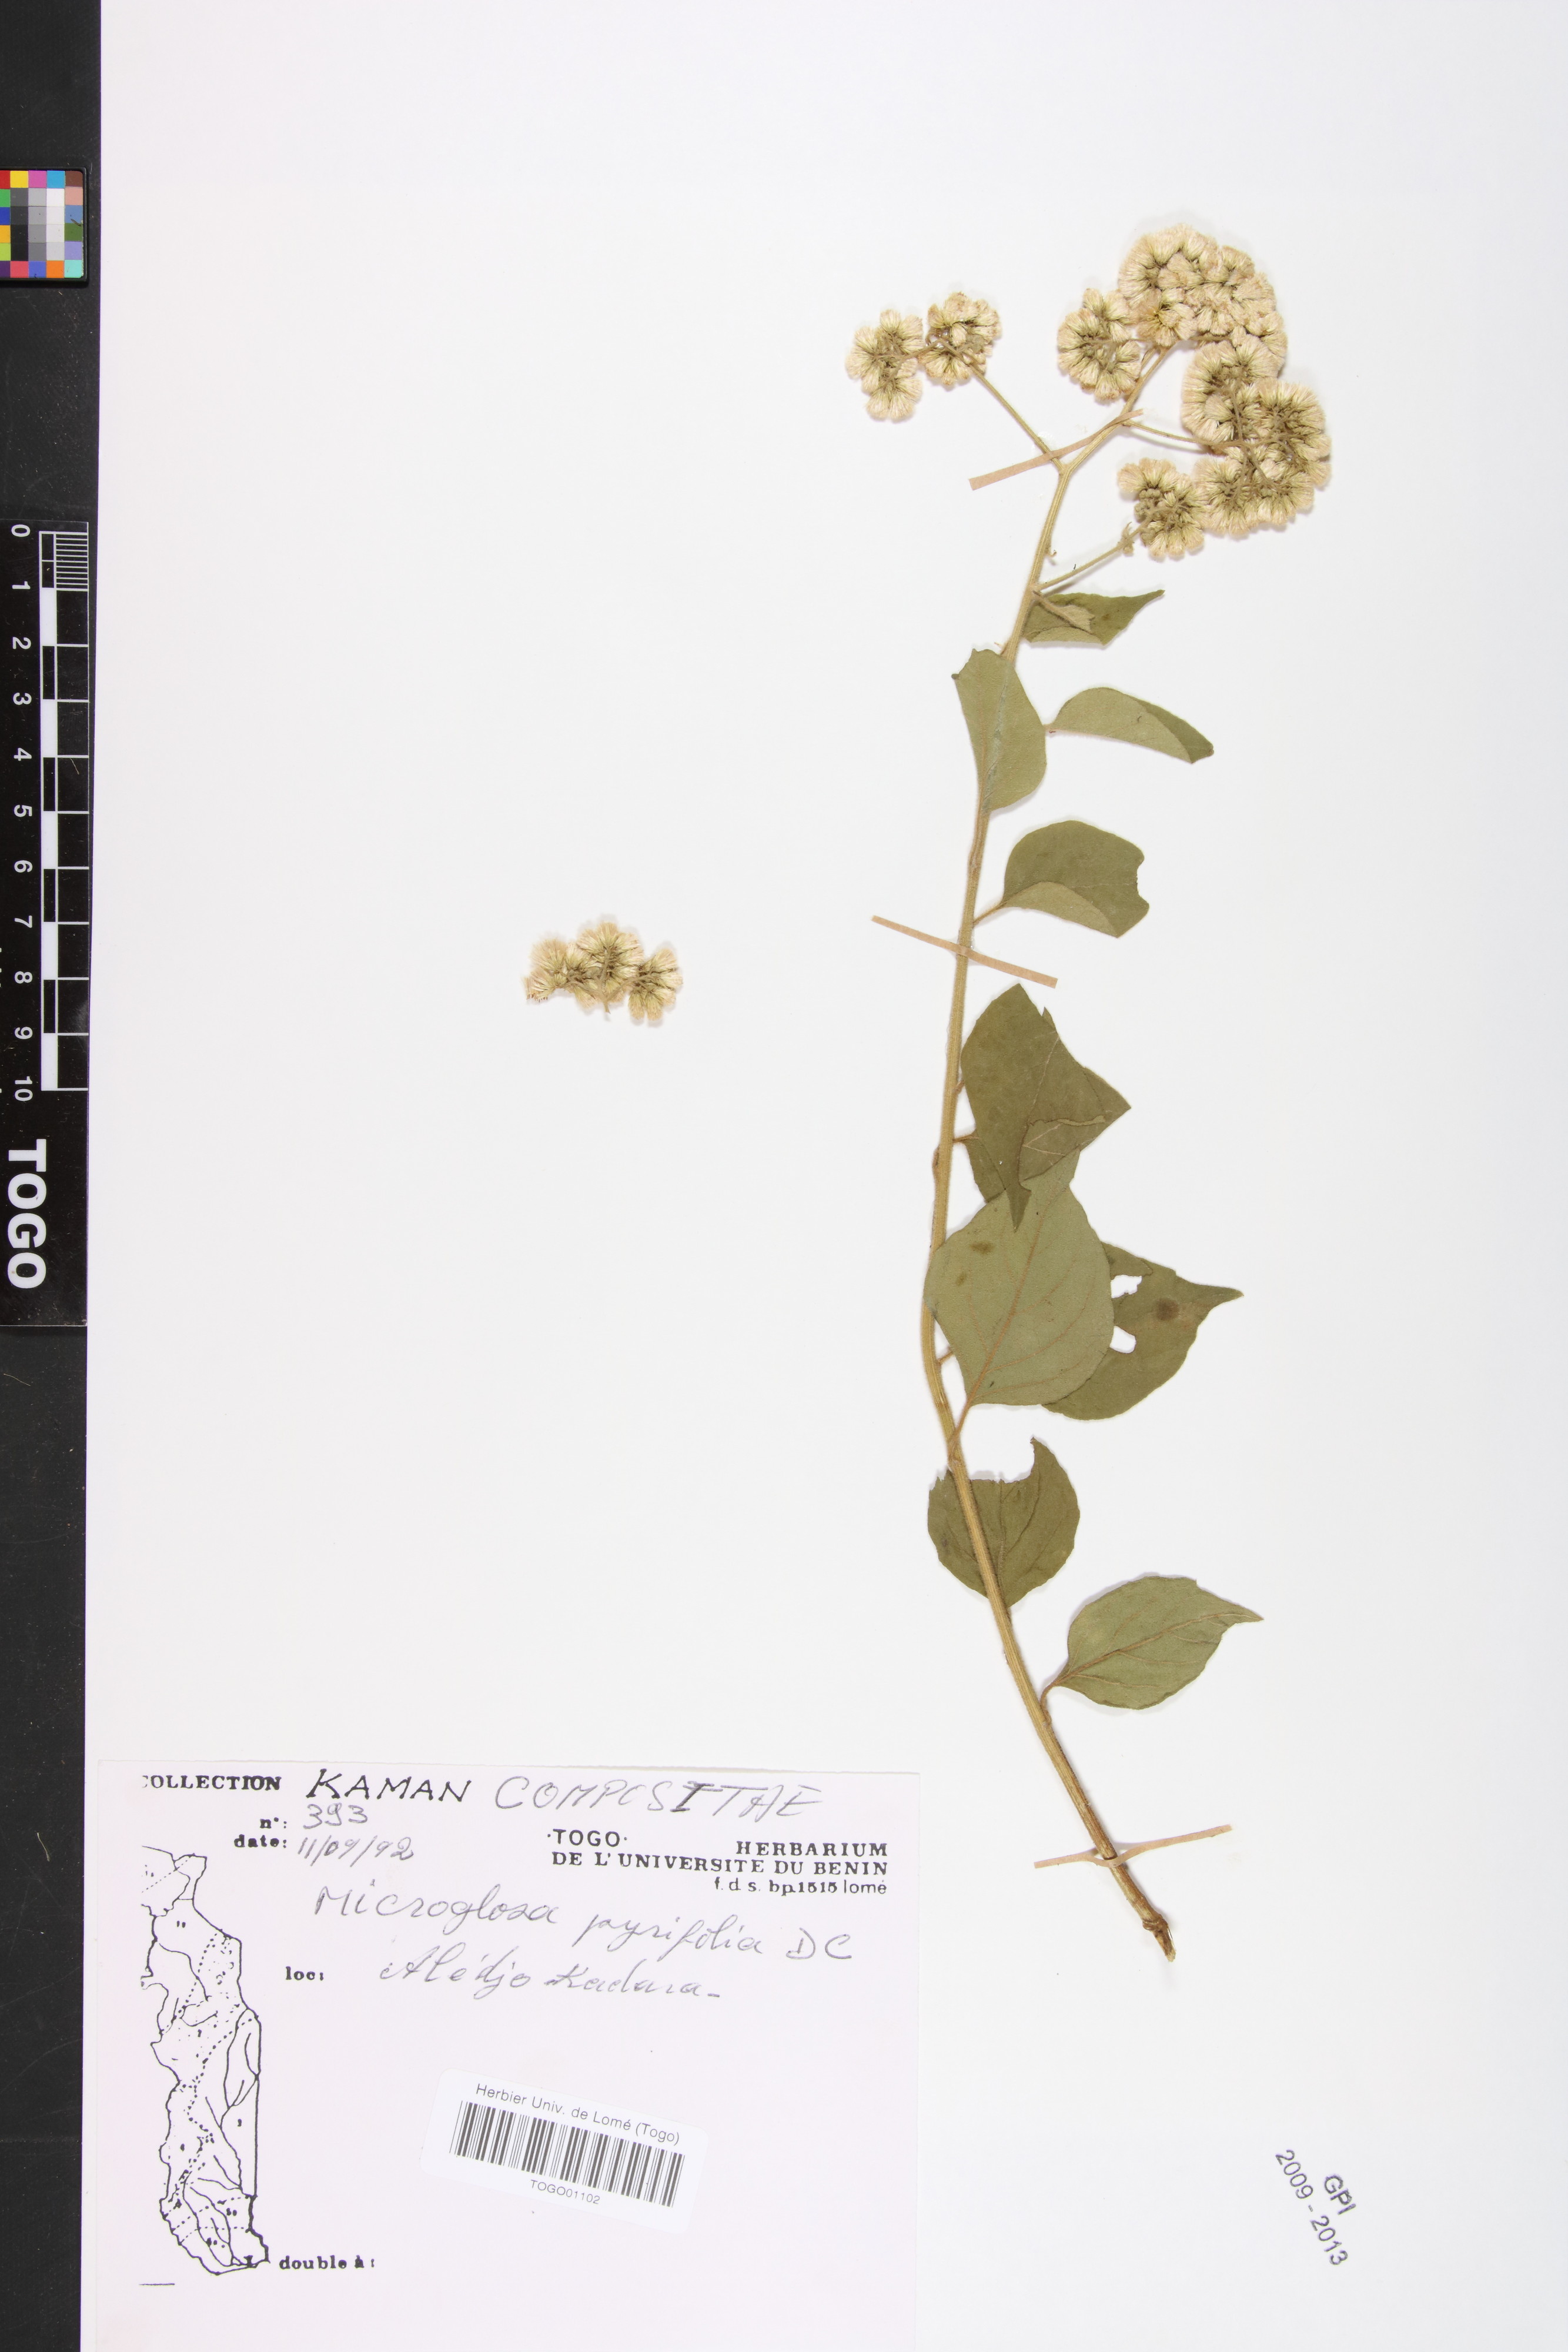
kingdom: Plantae
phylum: Tracheophyta
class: Magnoliopsida
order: Asterales
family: Asteraceae
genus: Microglossa
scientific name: Microglossa pyrifolia
